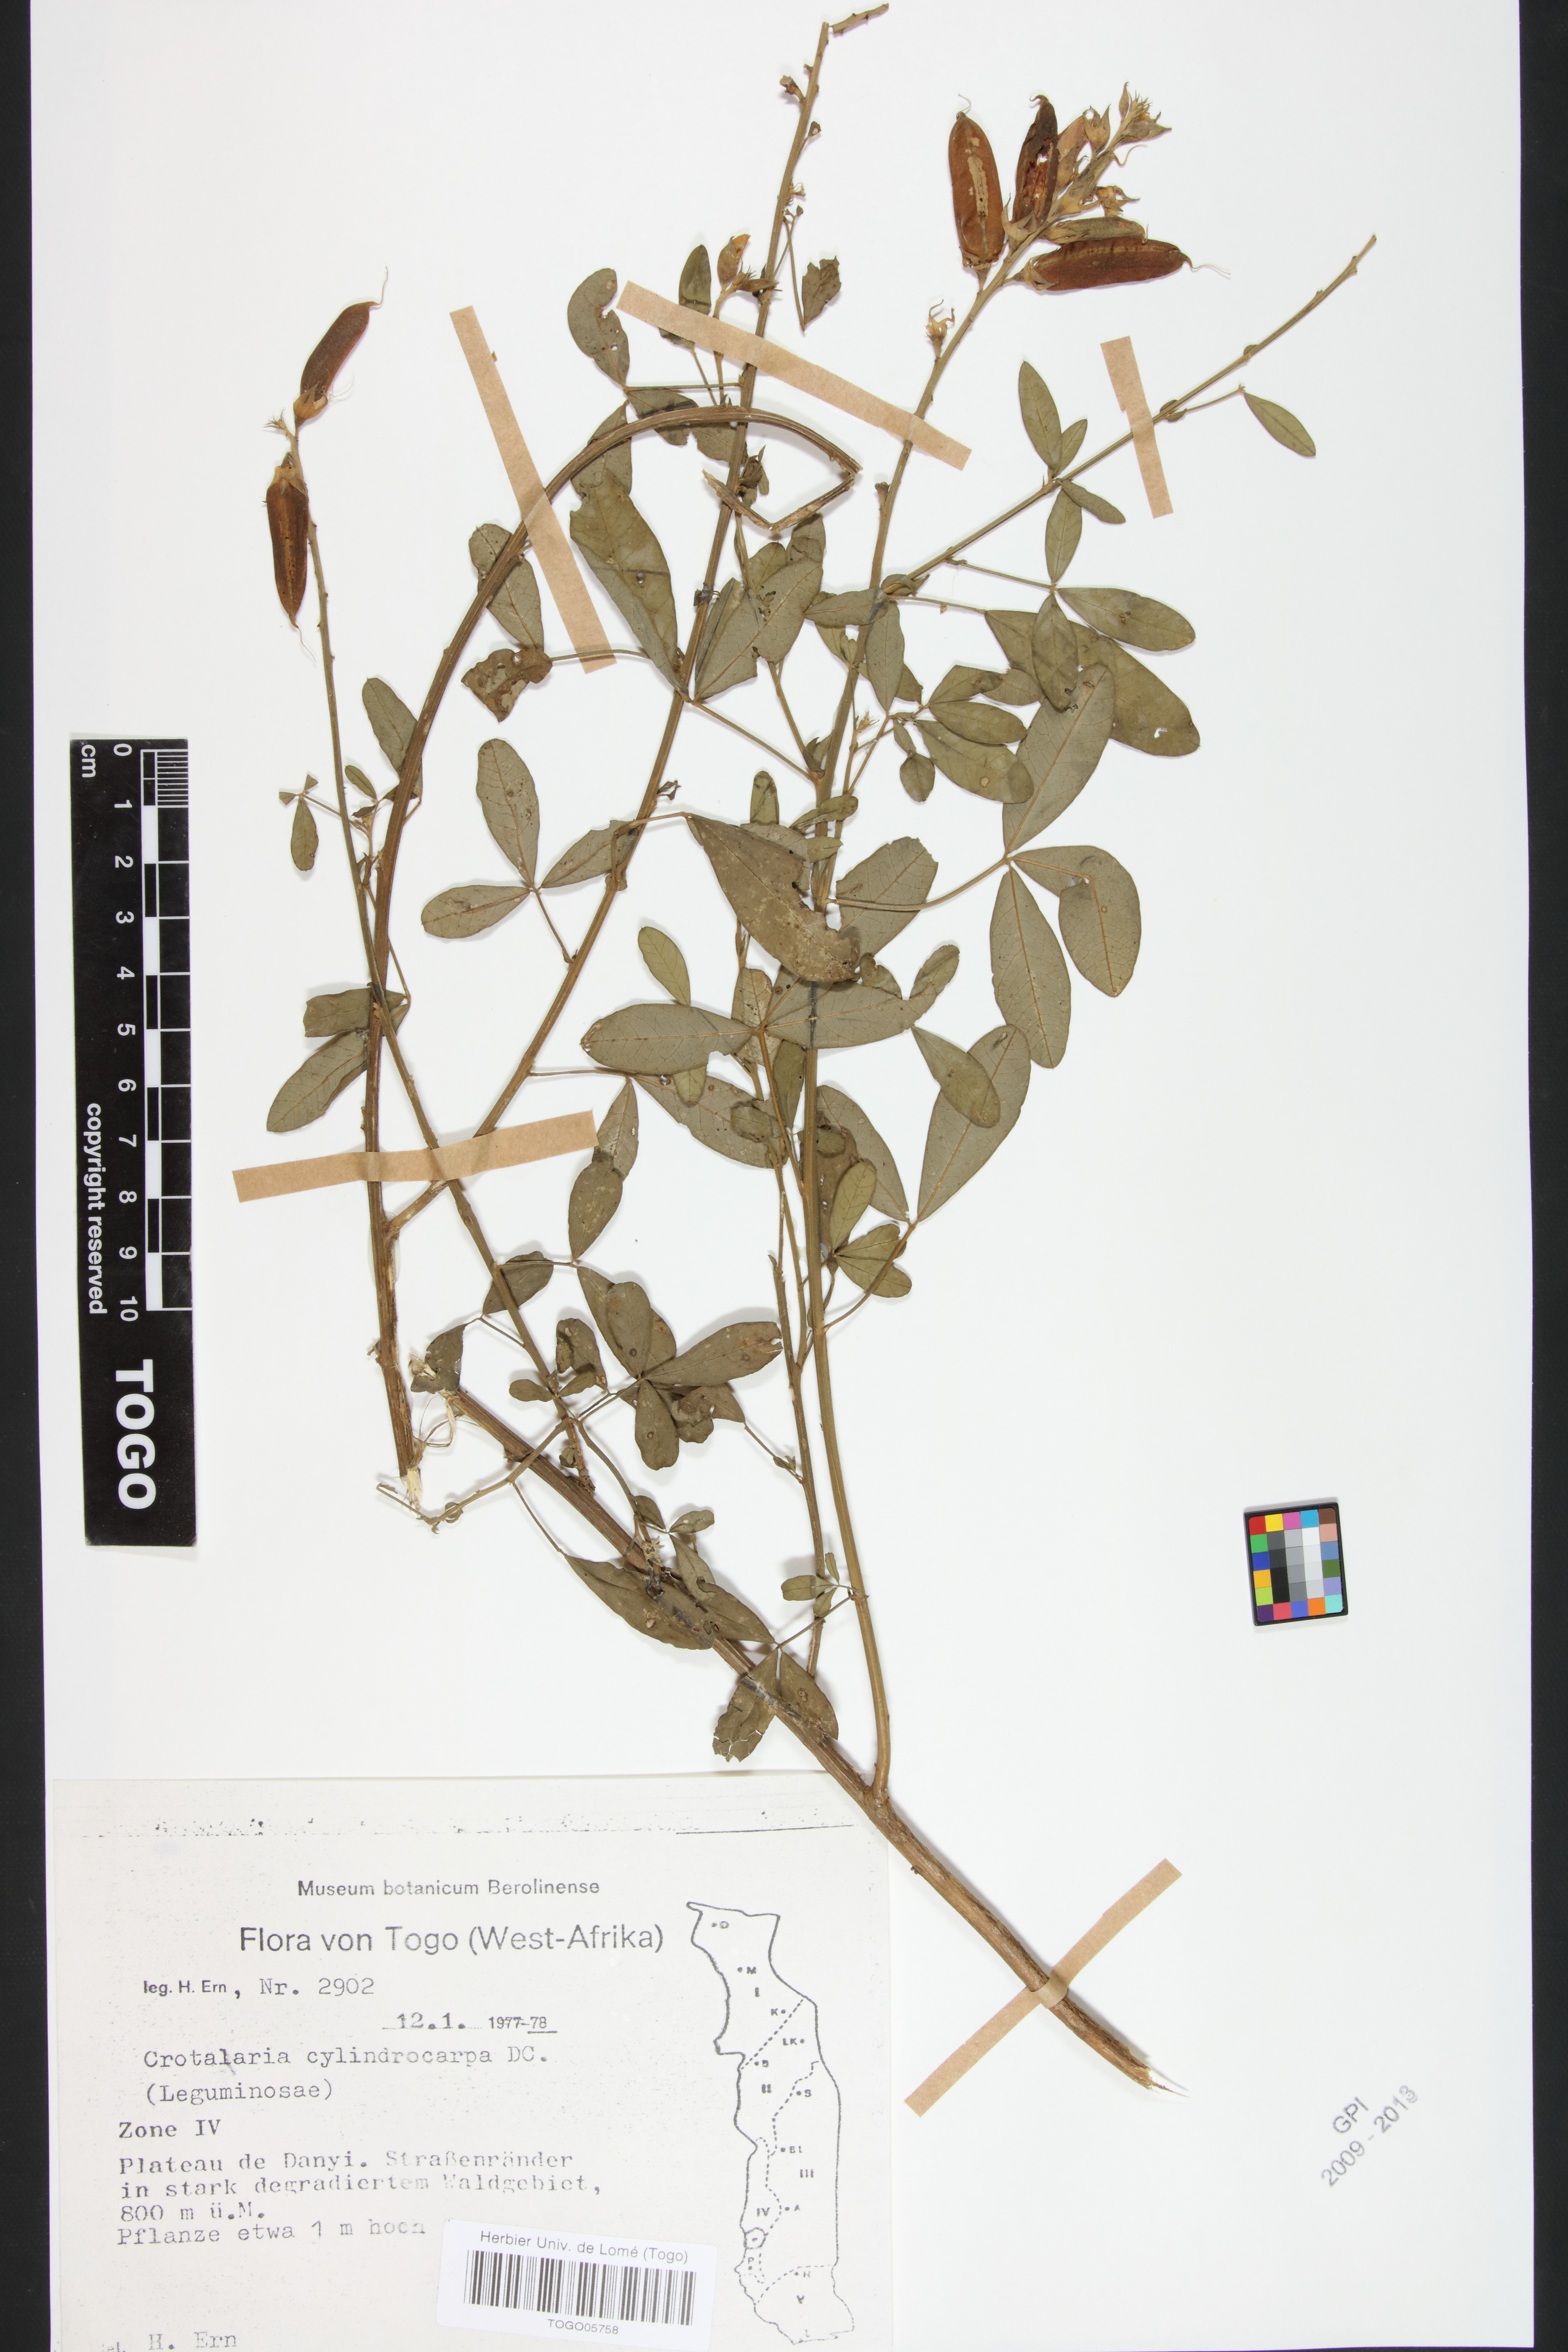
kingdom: Plantae
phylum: Tracheophyta
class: Magnoliopsida
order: Fabales
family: Fabaceae
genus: Crotalaria
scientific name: Crotalaria cylindrocarpa
